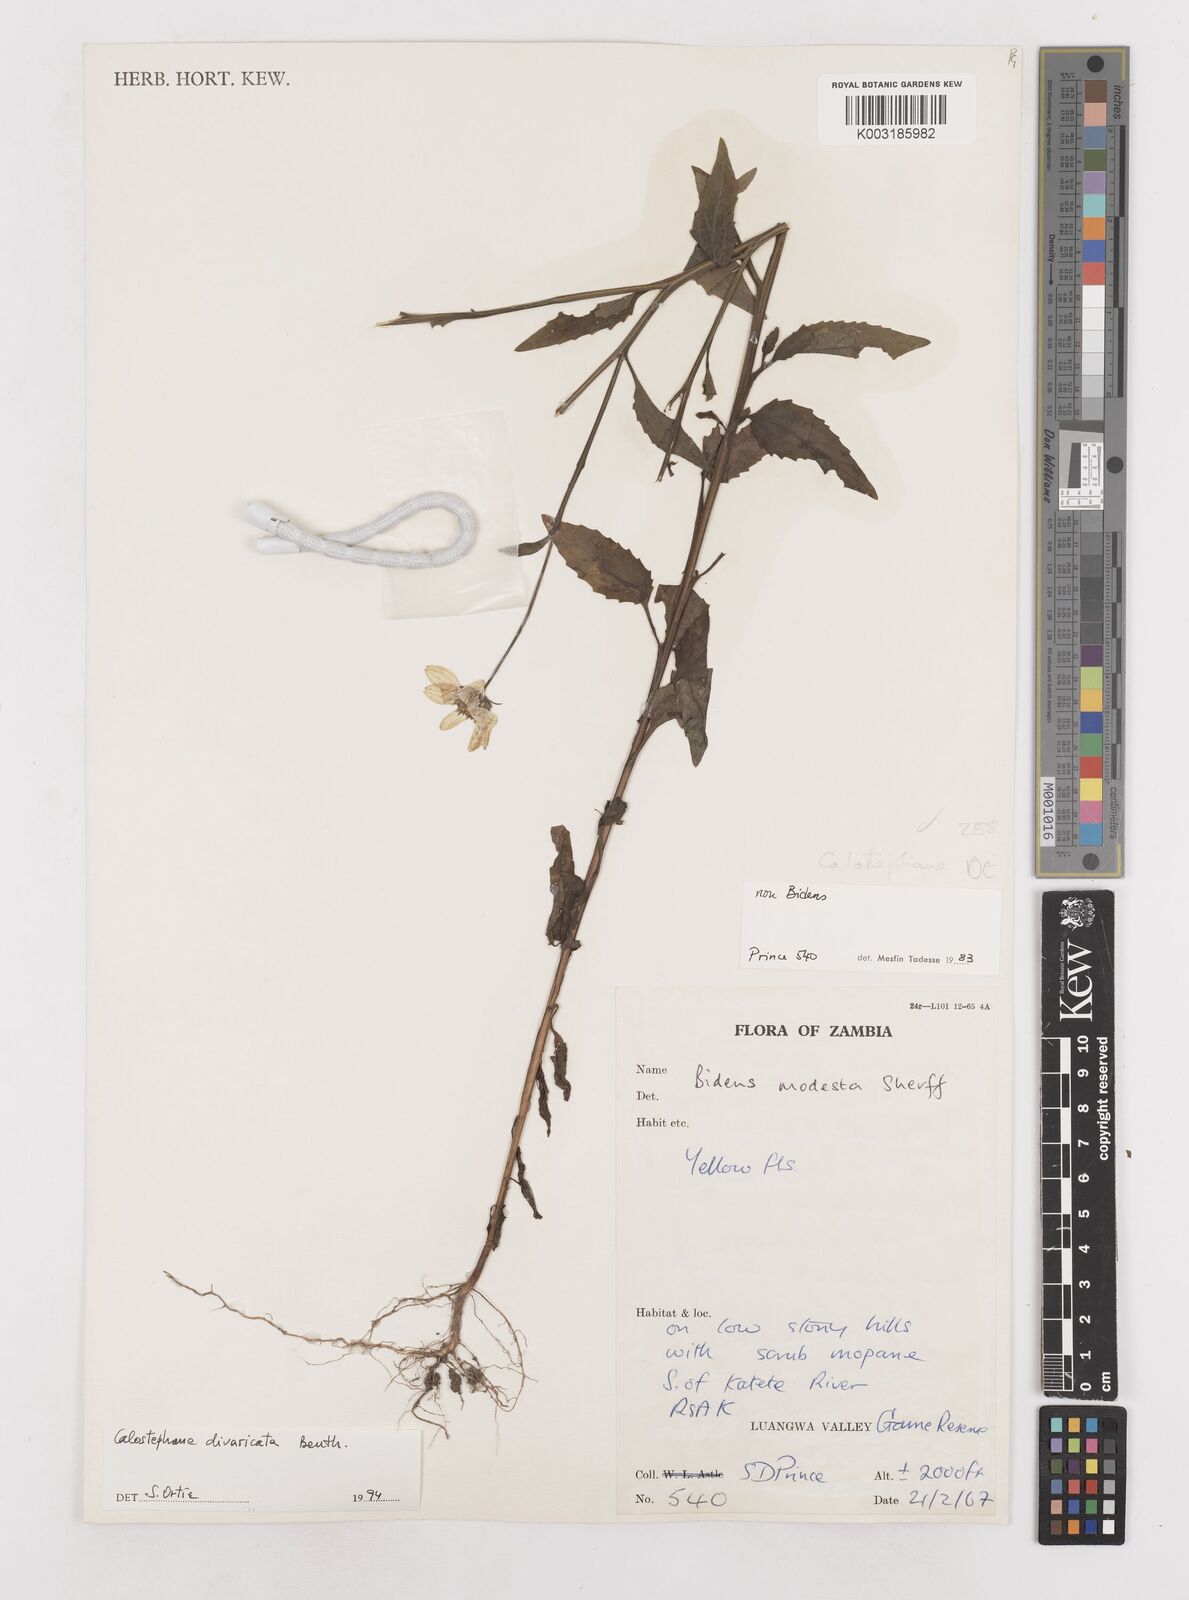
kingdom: Plantae
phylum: Tracheophyta
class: Magnoliopsida
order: Asterales
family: Asteraceae
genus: Calostephane
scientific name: Calostephane divaricata
